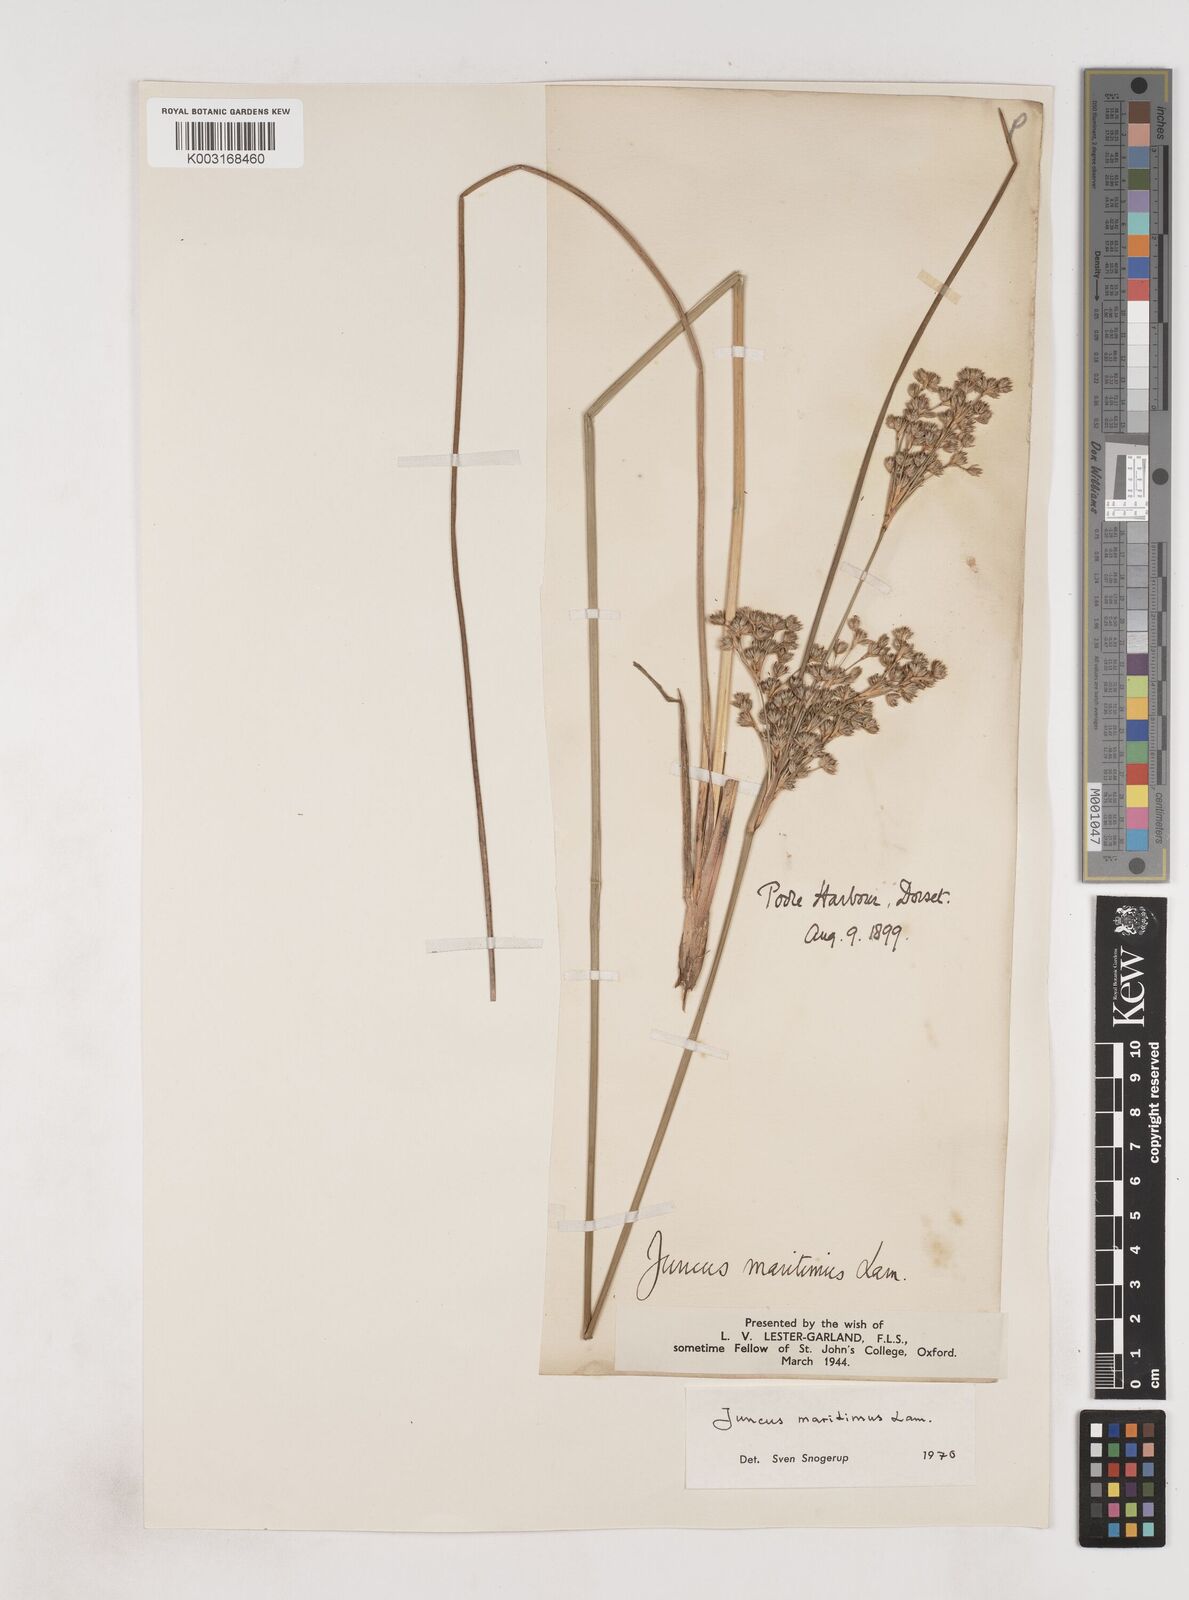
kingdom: Plantae
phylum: Tracheophyta
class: Liliopsida
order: Poales
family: Juncaceae
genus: Juncus
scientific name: Juncus maritimus
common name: Sea rush
